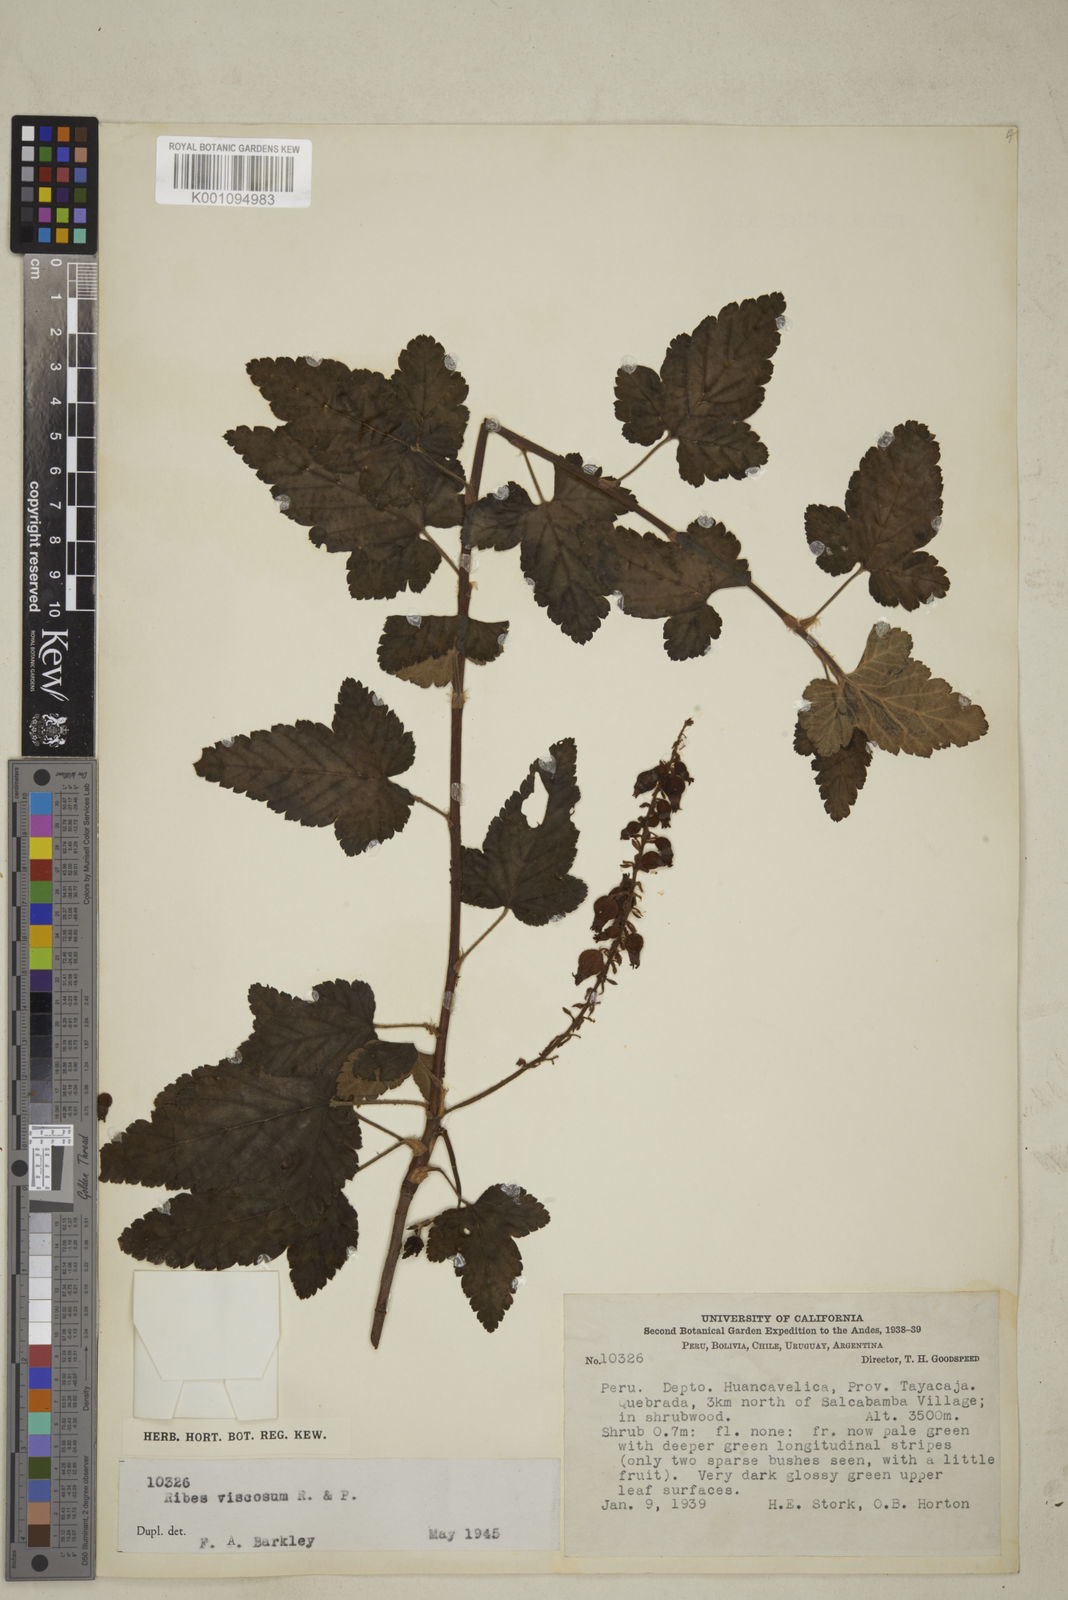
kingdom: Plantae
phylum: Tracheophyta
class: Magnoliopsida
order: Saxifragales
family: Grossulariaceae
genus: Ribes
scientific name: Ribes viscosum
